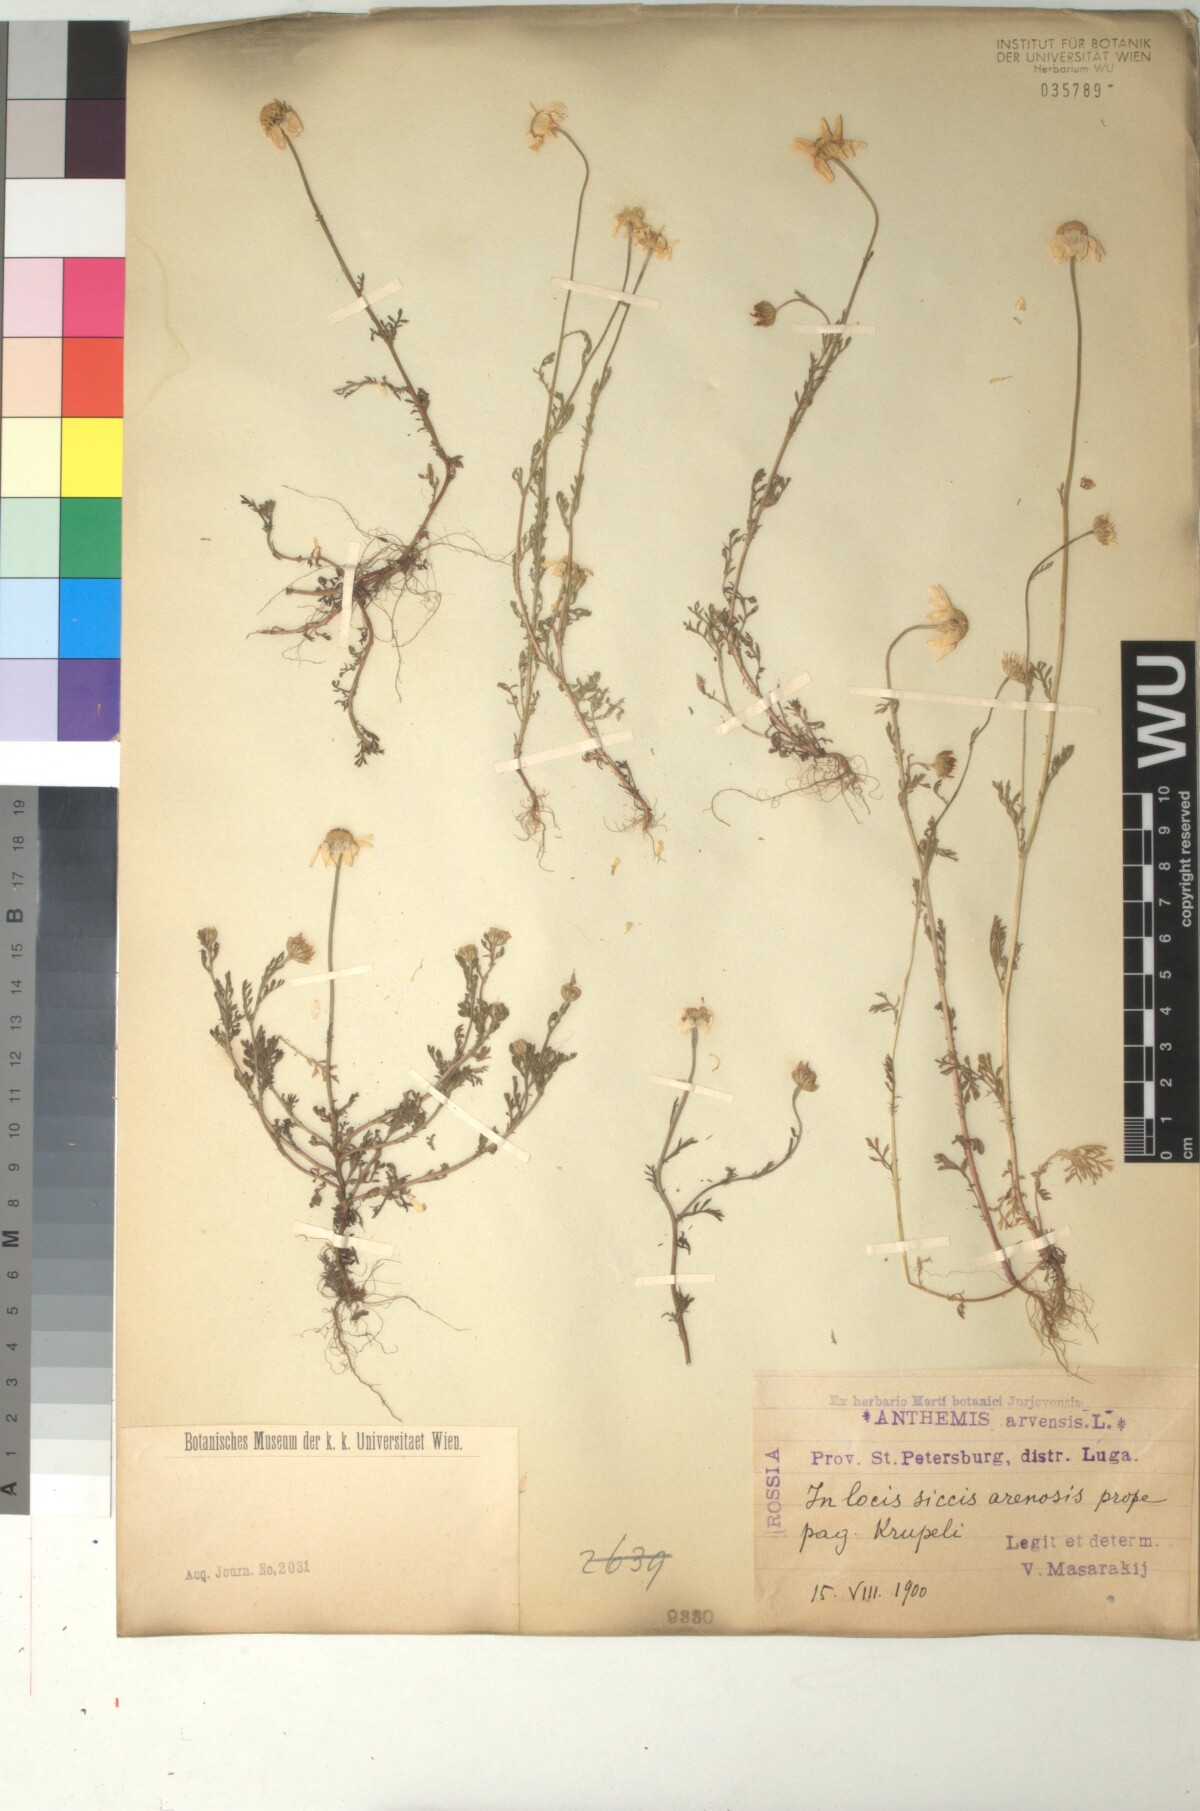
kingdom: Plantae
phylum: Tracheophyta
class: Magnoliopsida
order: Asterales
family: Asteraceae
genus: Anthemis
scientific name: Anthemis arvensis
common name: Corn chamomile
